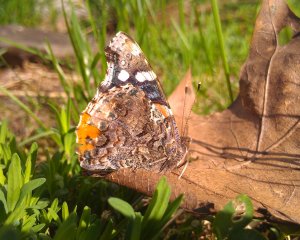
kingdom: Animalia
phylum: Arthropoda
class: Insecta
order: Lepidoptera
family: Nymphalidae
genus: Vanessa
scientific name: Vanessa atalanta
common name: Red Admiral
